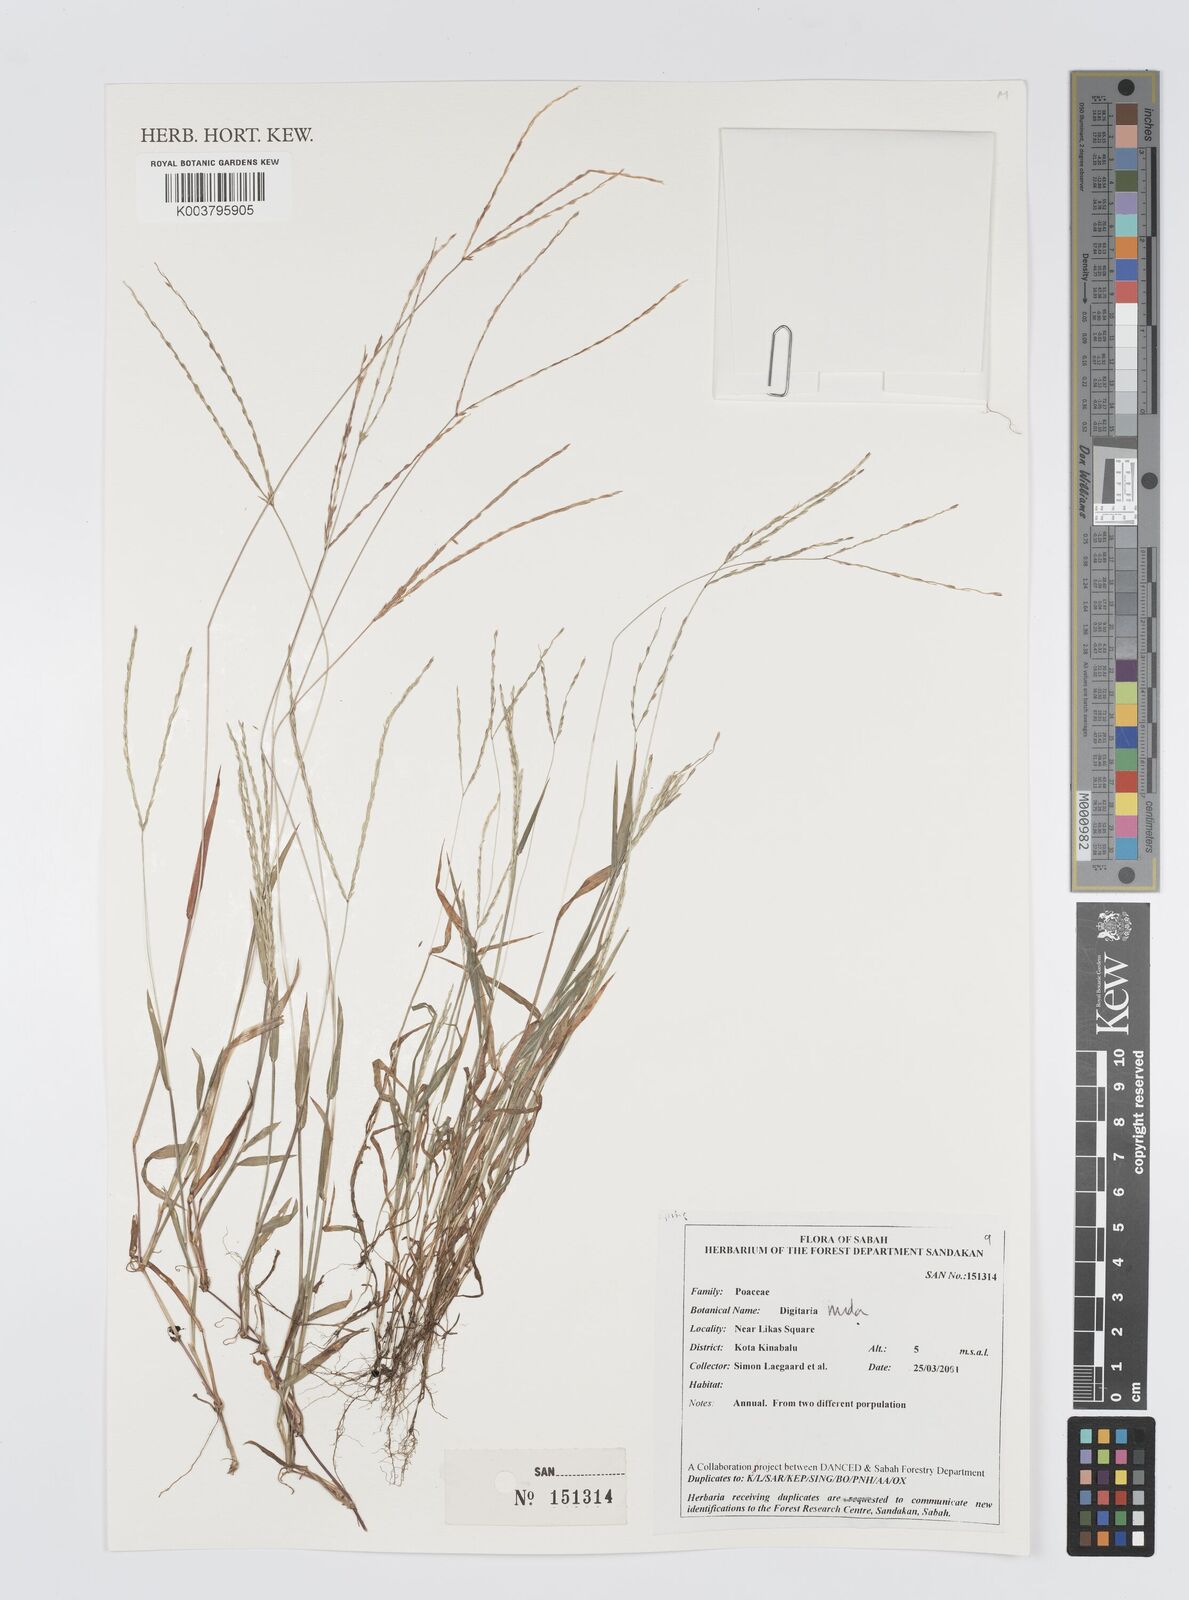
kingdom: Plantae
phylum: Tracheophyta
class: Liliopsida
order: Poales
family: Poaceae
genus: Digitaria
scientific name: Digitaria nuda
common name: Naked crabgrass
